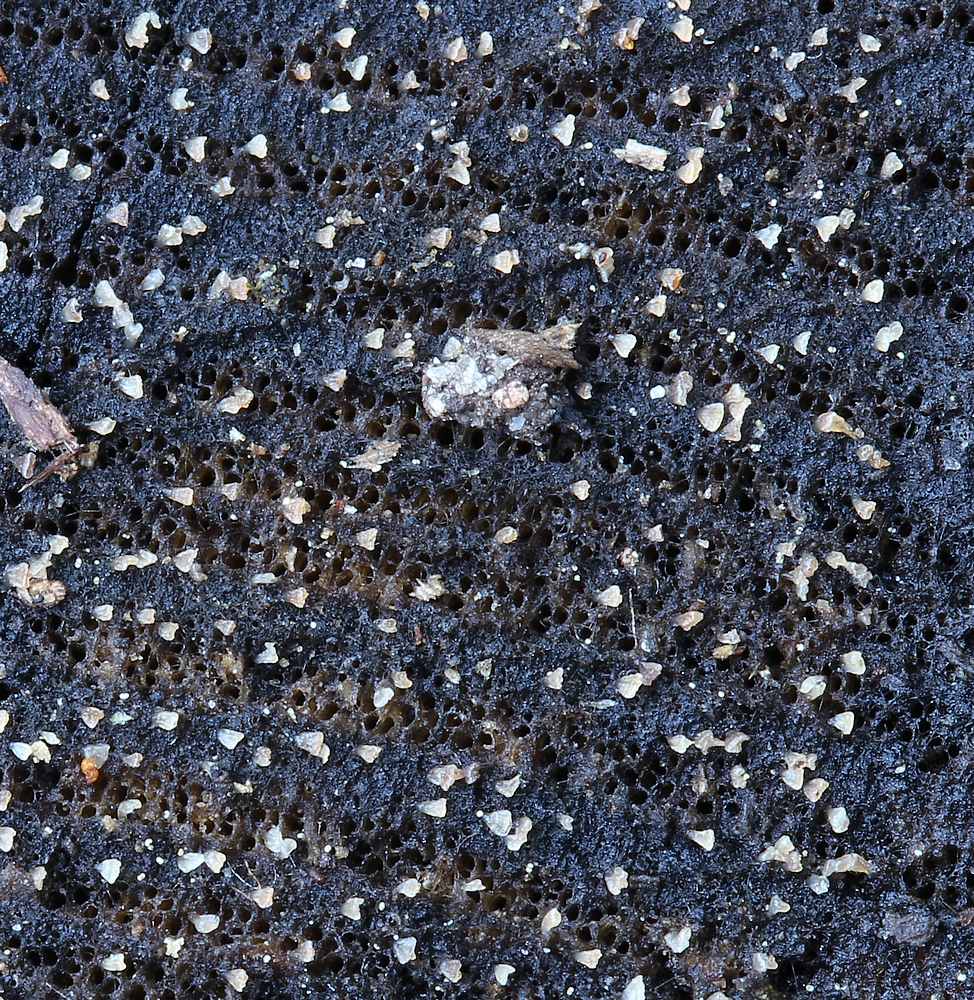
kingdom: Fungi
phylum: Ascomycota
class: Leotiomycetes
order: Helotiales
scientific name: Helotiales
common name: stilkskiveordenen
